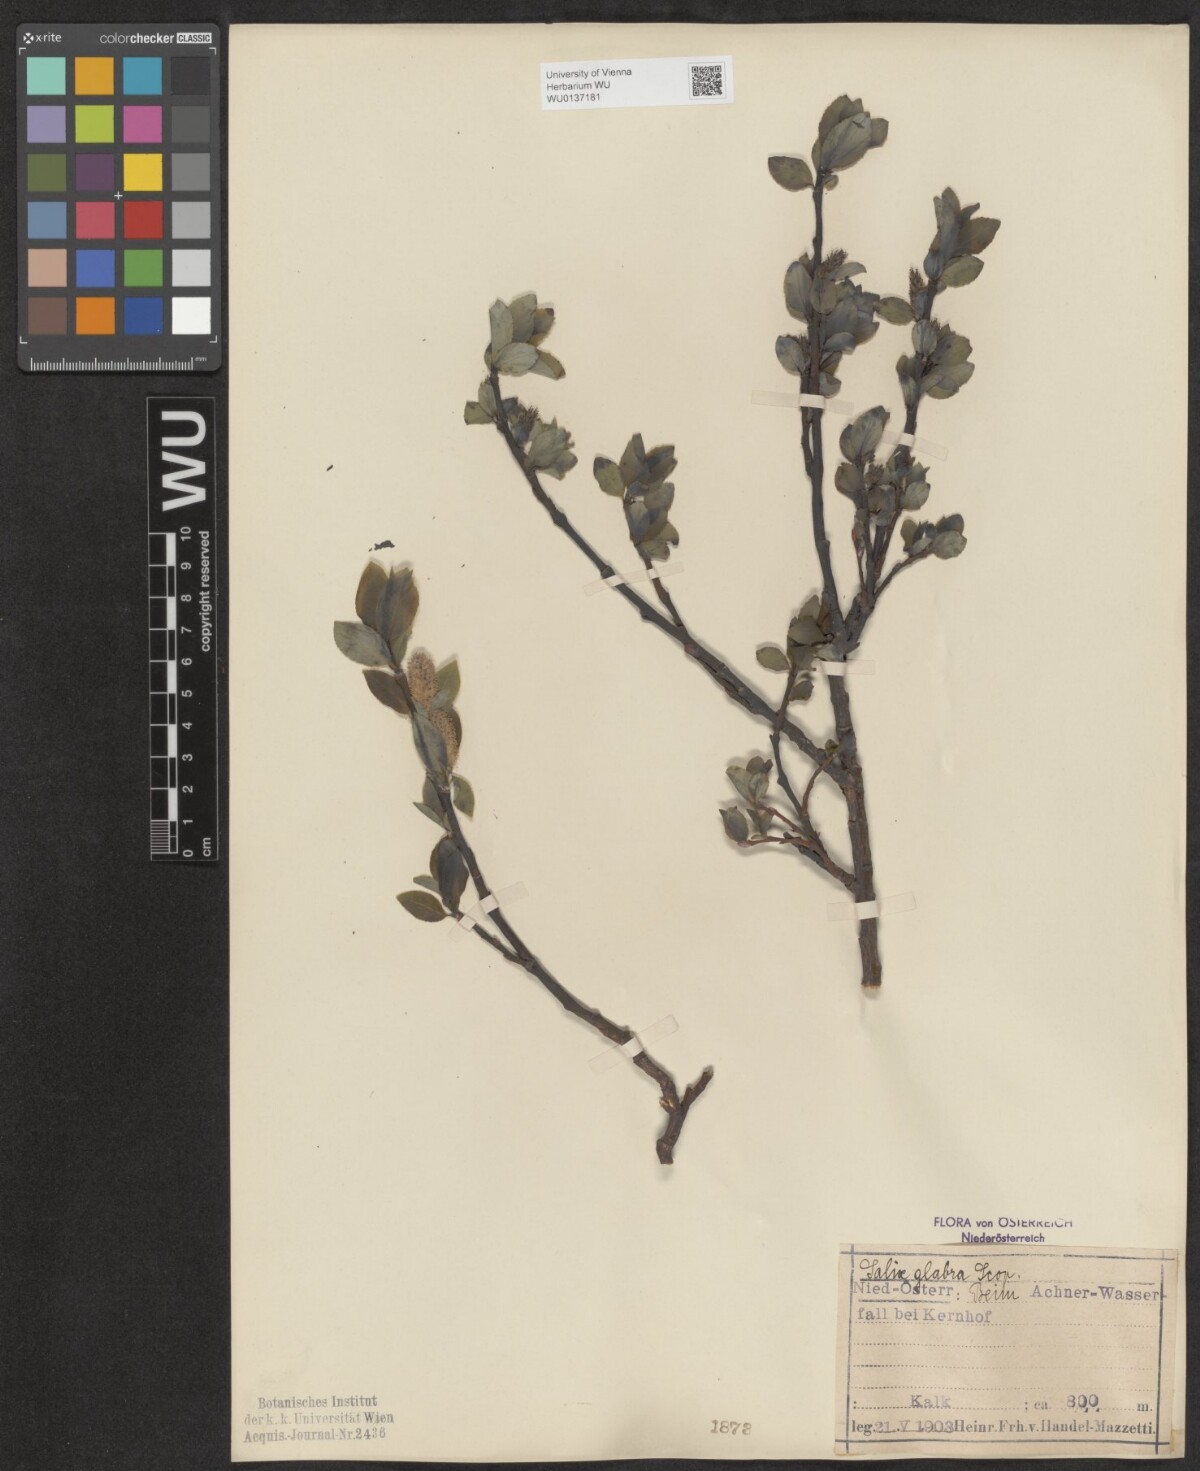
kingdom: Plantae
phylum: Tracheophyta
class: Magnoliopsida
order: Malpighiales
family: Salicaceae
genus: Salix
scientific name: Salix glabra
